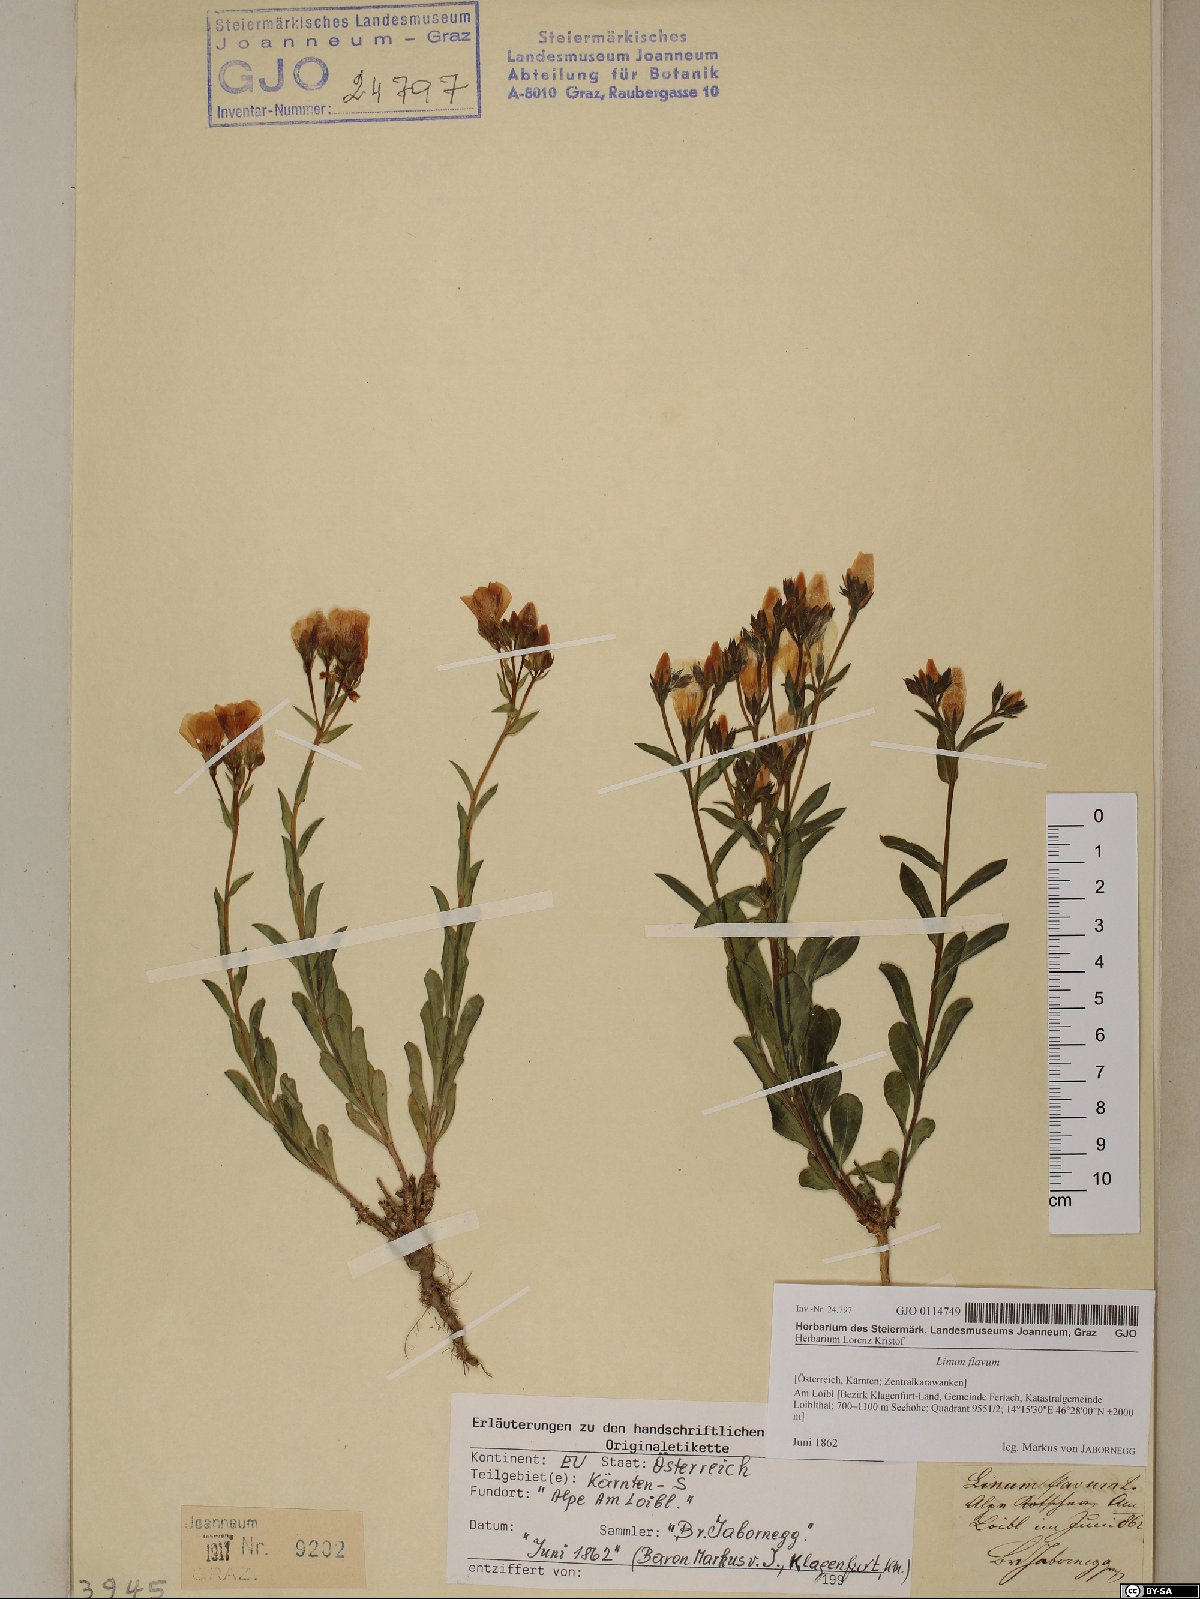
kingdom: Plantae
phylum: Tracheophyta
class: Magnoliopsida
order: Malpighiales
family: Linaceae
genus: Linum
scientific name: Linum flavum
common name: Yellow flax
